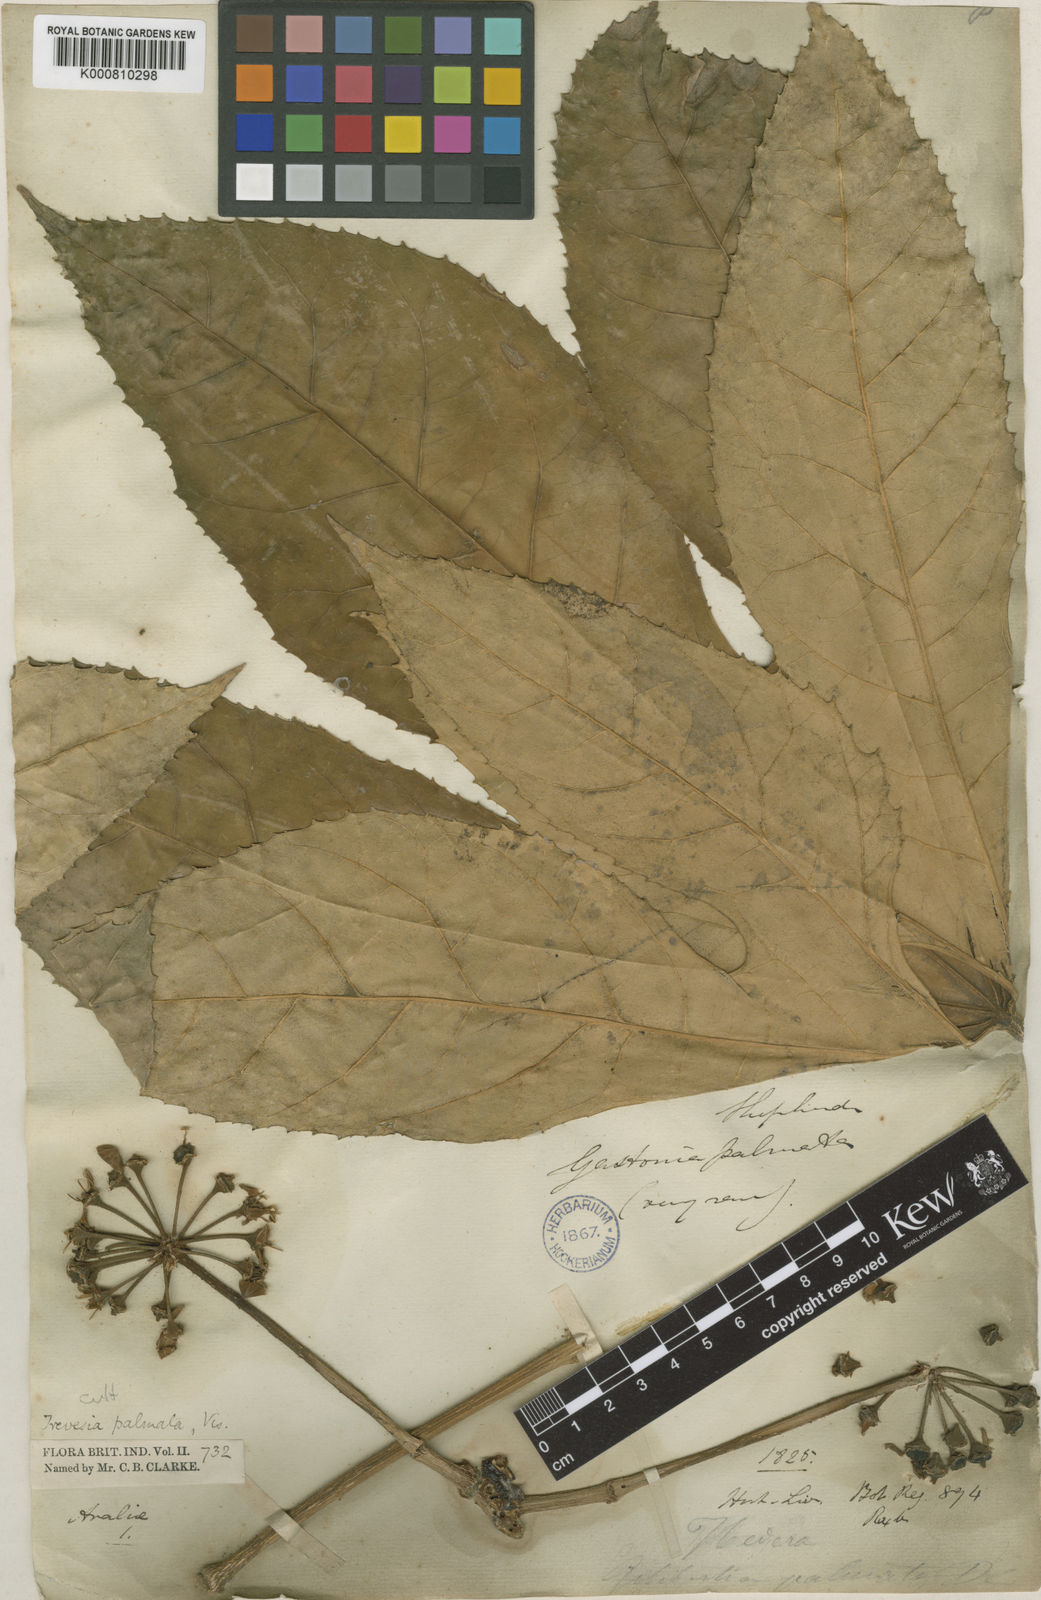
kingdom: Plantae
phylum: Tracheophyta
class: Magnoliopsida
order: Apiales
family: Araliaceae
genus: Trevesia
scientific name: Trevesia palmata
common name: Snowflakeplant
